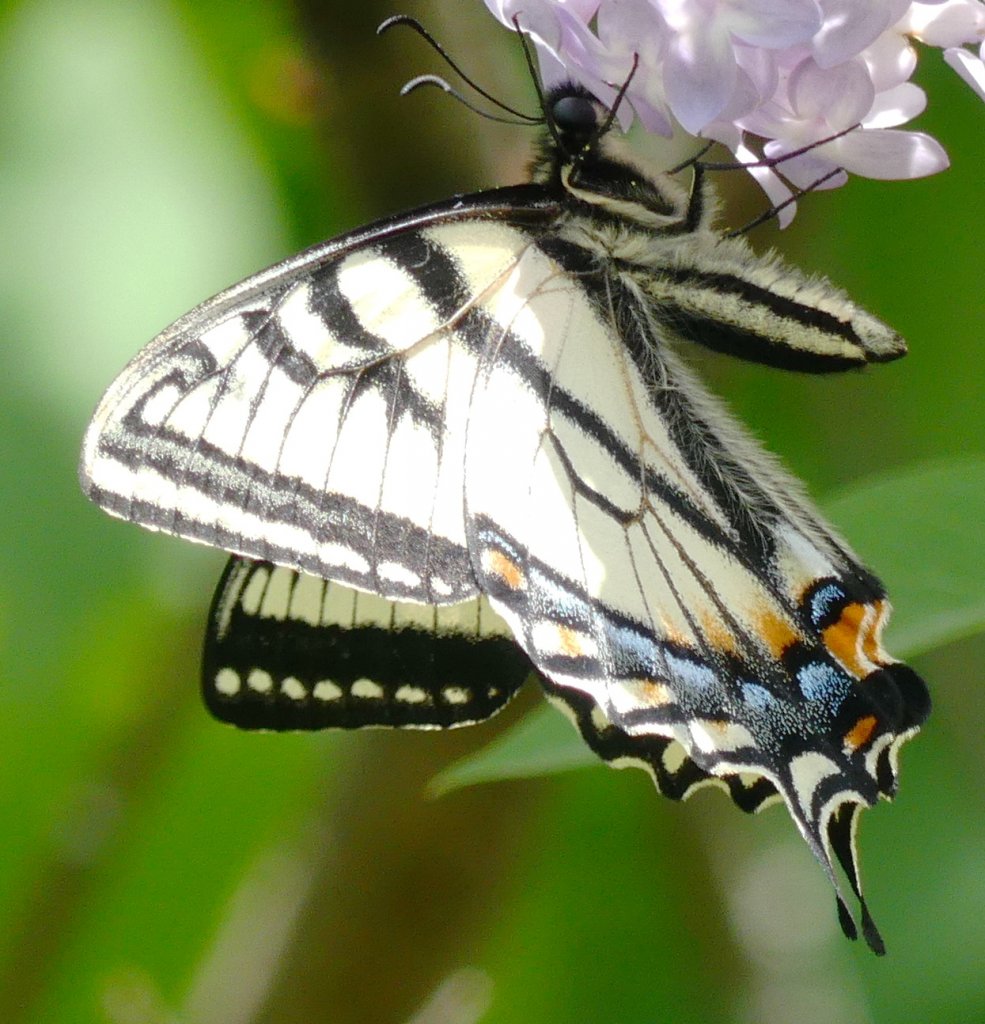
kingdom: Animalia
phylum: Arthropoda
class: Insecta
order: Lepidoptera
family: Papilionidae
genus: Pterourus
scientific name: Pterourus canadensis
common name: Canadian Tiger Swallowtail
